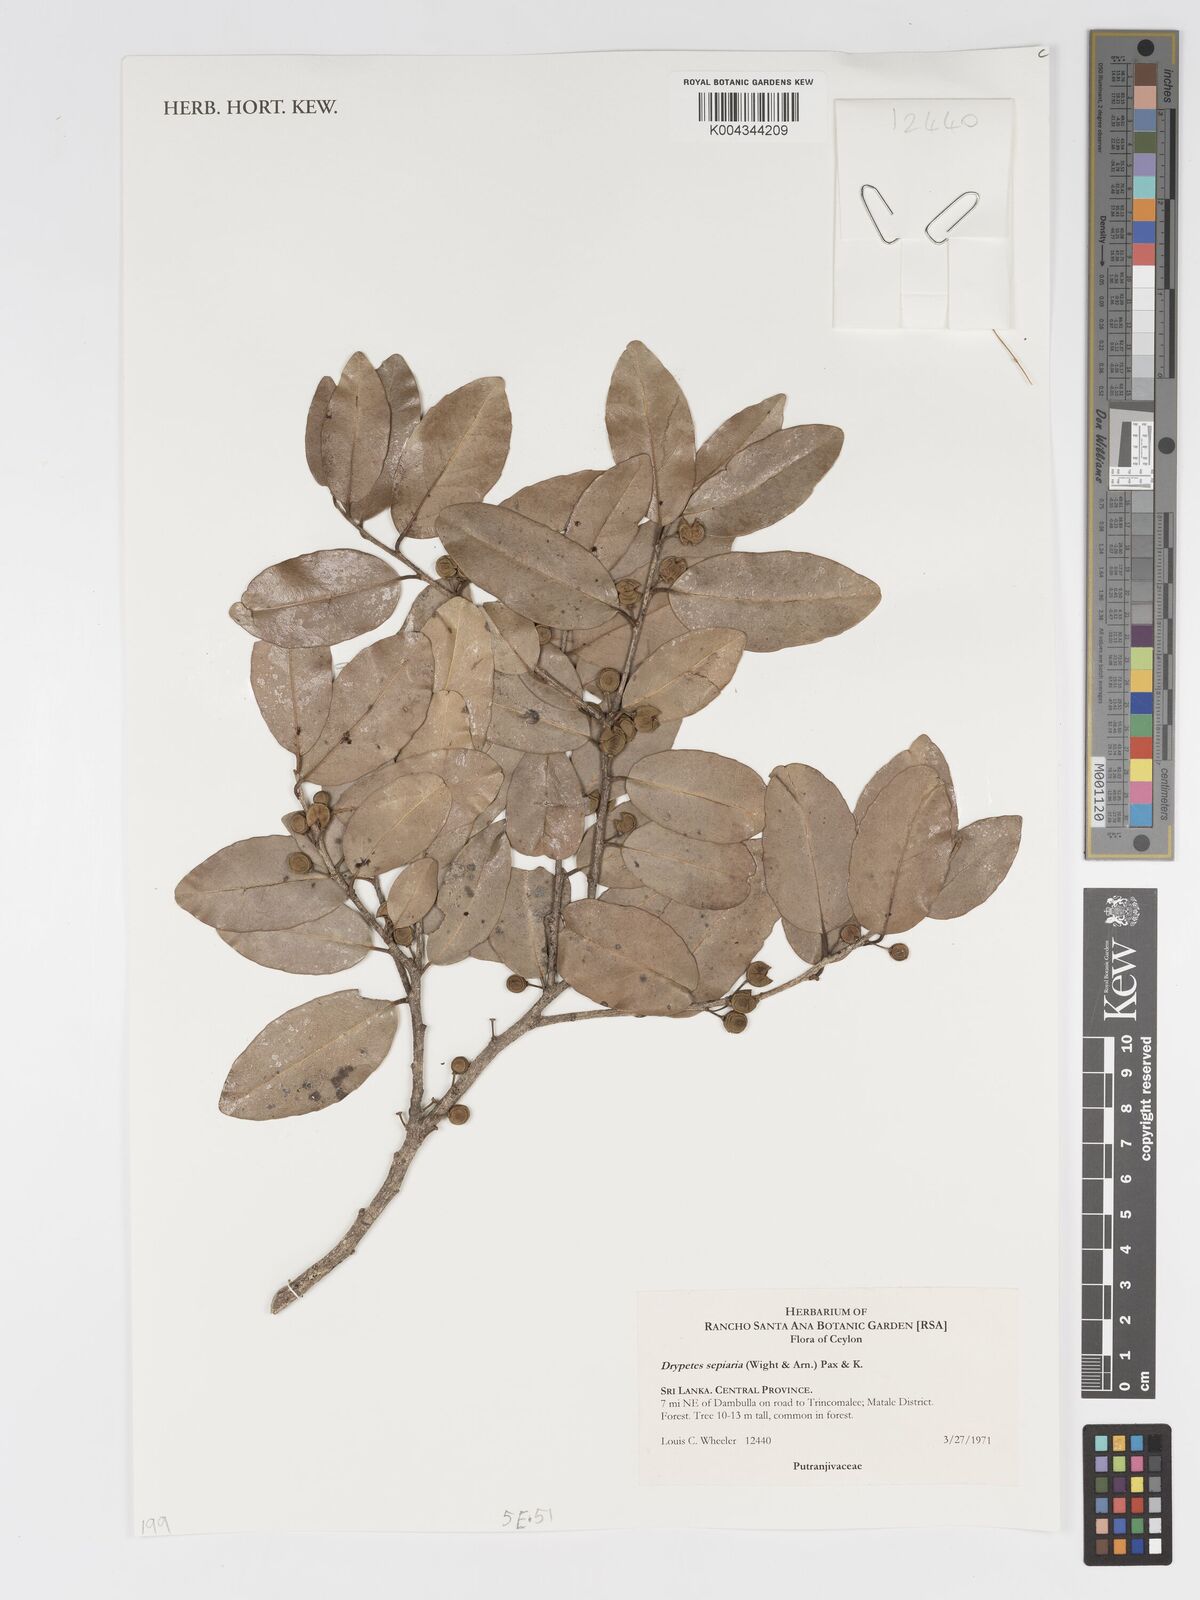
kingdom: Plantae
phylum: Tracheophyta
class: Magnoliopsida
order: Malpighiales
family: Putranjivaceae
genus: Drypetes
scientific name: Drypetes sepiaria
